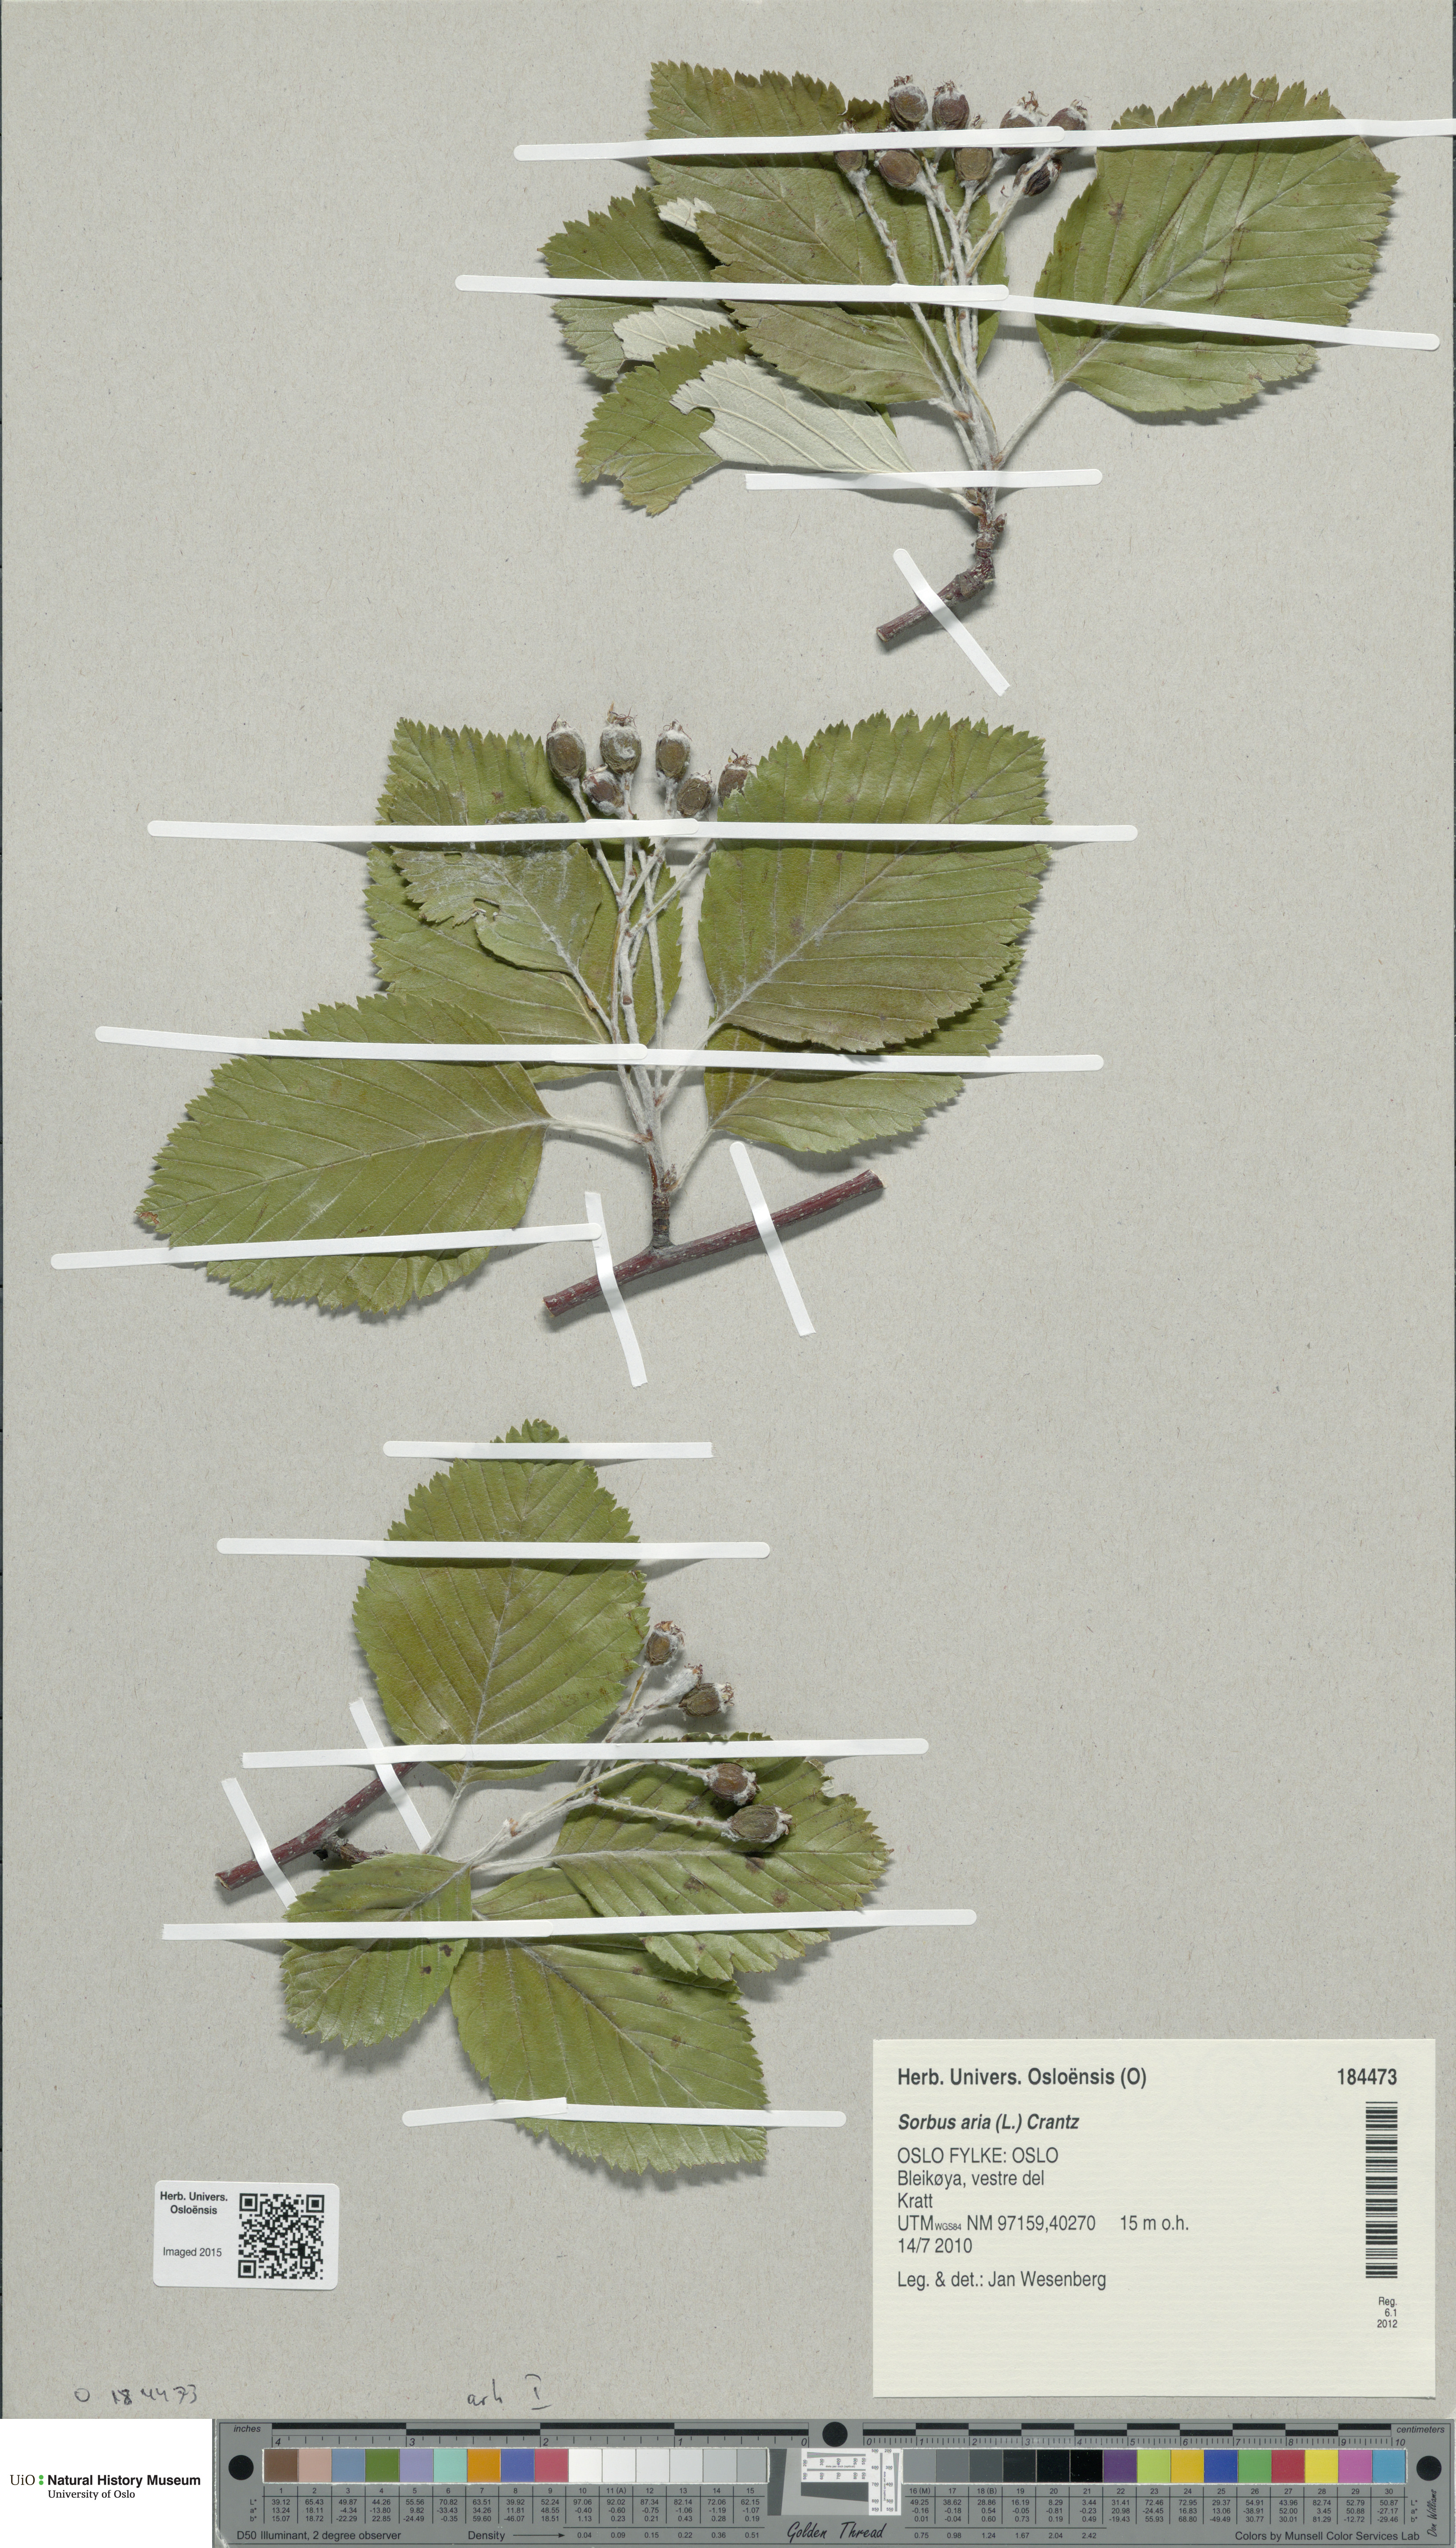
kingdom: Plantae
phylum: Tracheophyta
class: Magnoliopsida
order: Rosales
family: Rosaceae
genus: Aria
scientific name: Aria edulis
